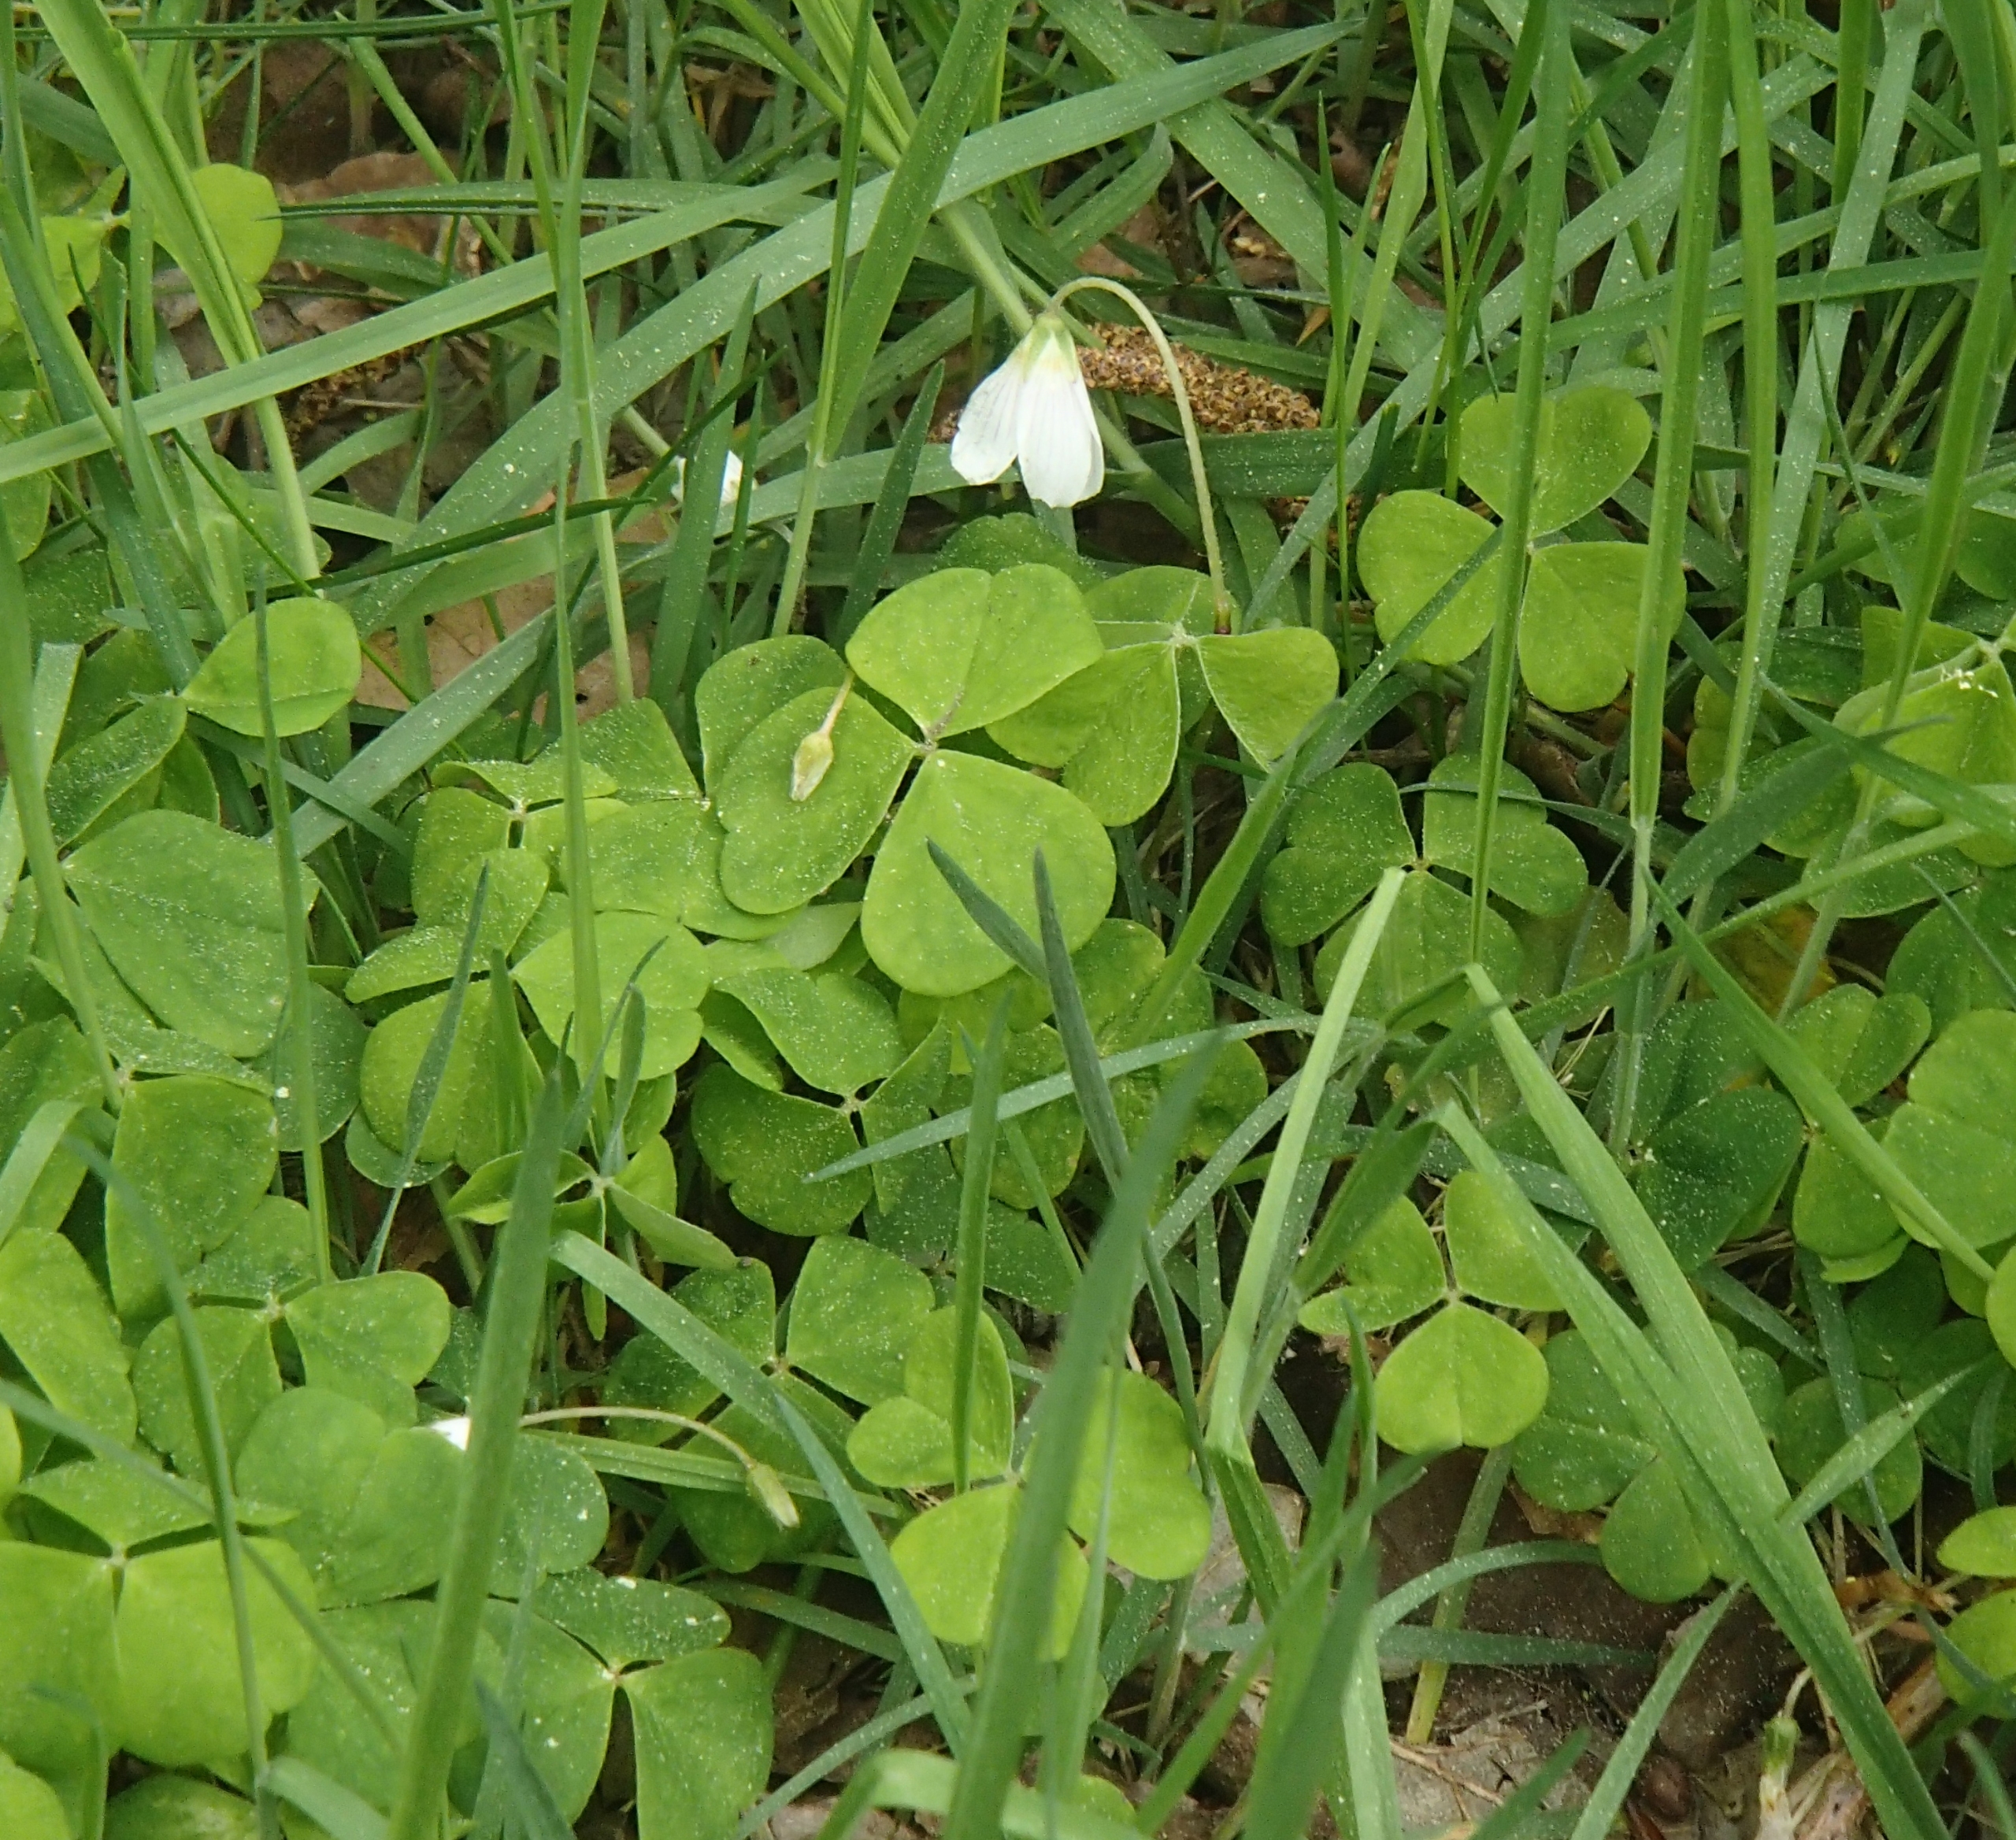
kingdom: Plantae
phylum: Tracheophyta
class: Magnoliopsida
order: Oxalidales
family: Oxalidaceae
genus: Oxalis
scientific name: Oxalis acetosella
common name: Skovsyre
